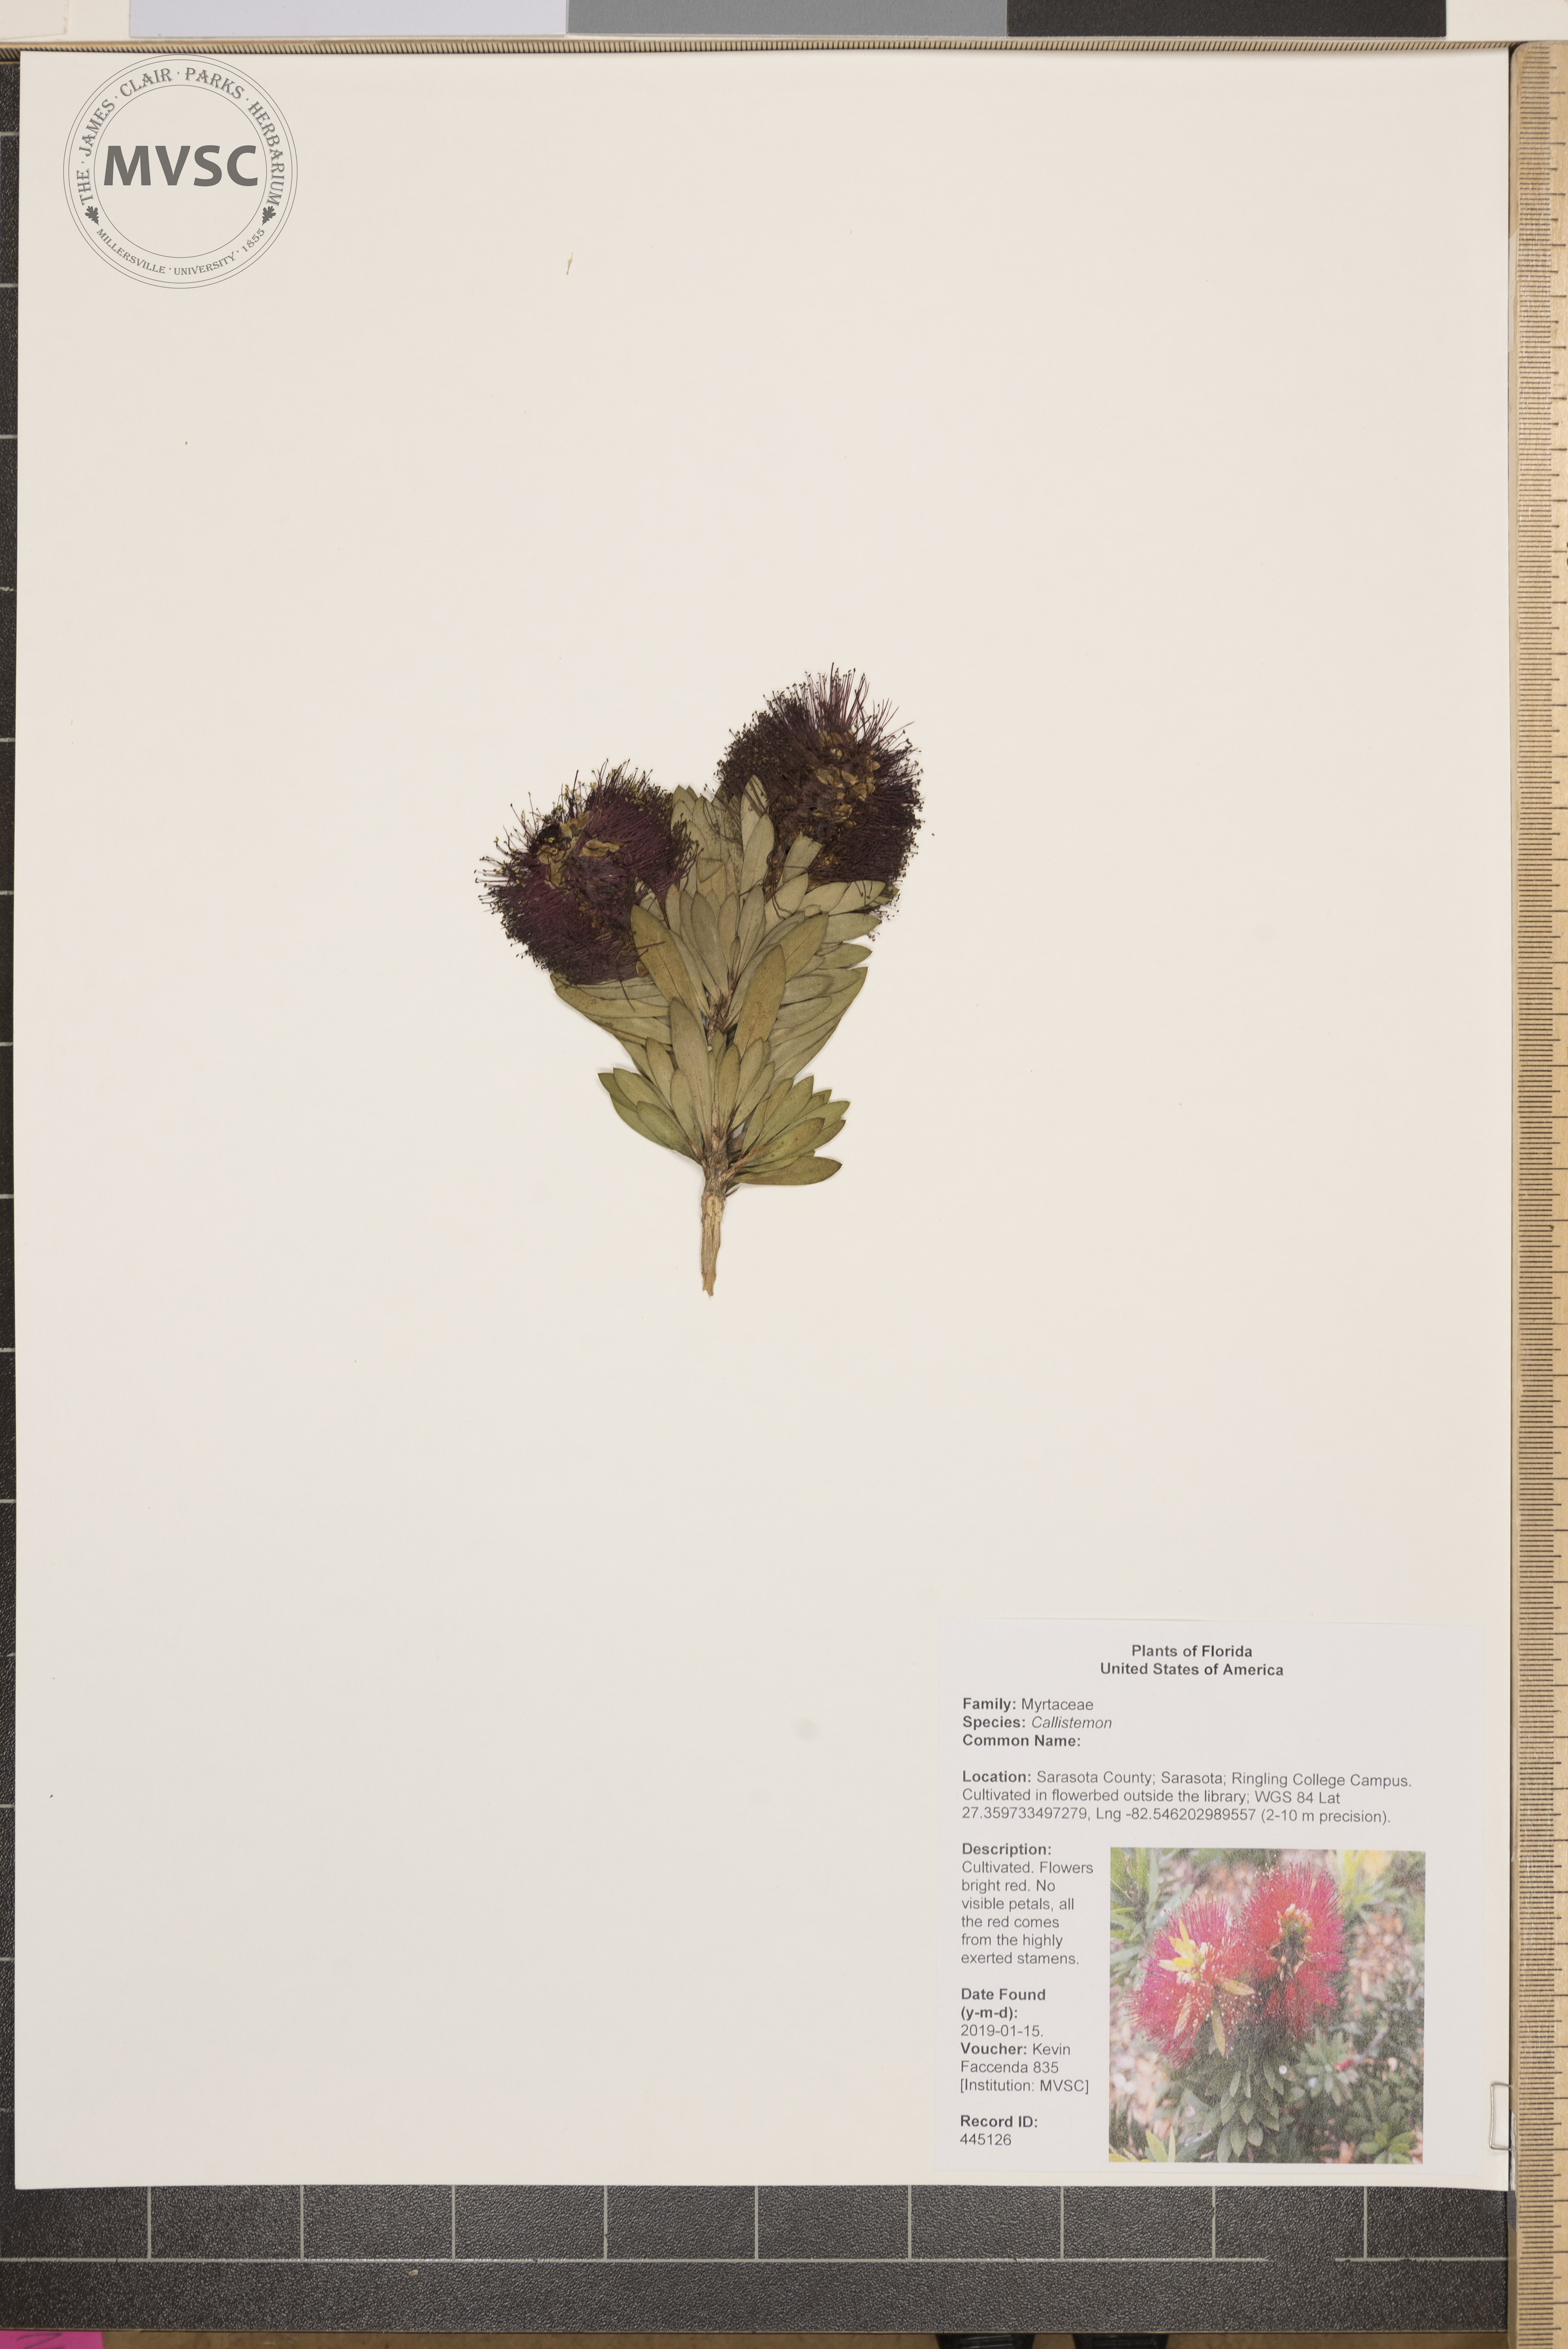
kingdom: Plantae
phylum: Tracheophyta
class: Magnoliopsida
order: Myrtales
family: Myrtaceae
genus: Callistemon
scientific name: Callistemon
